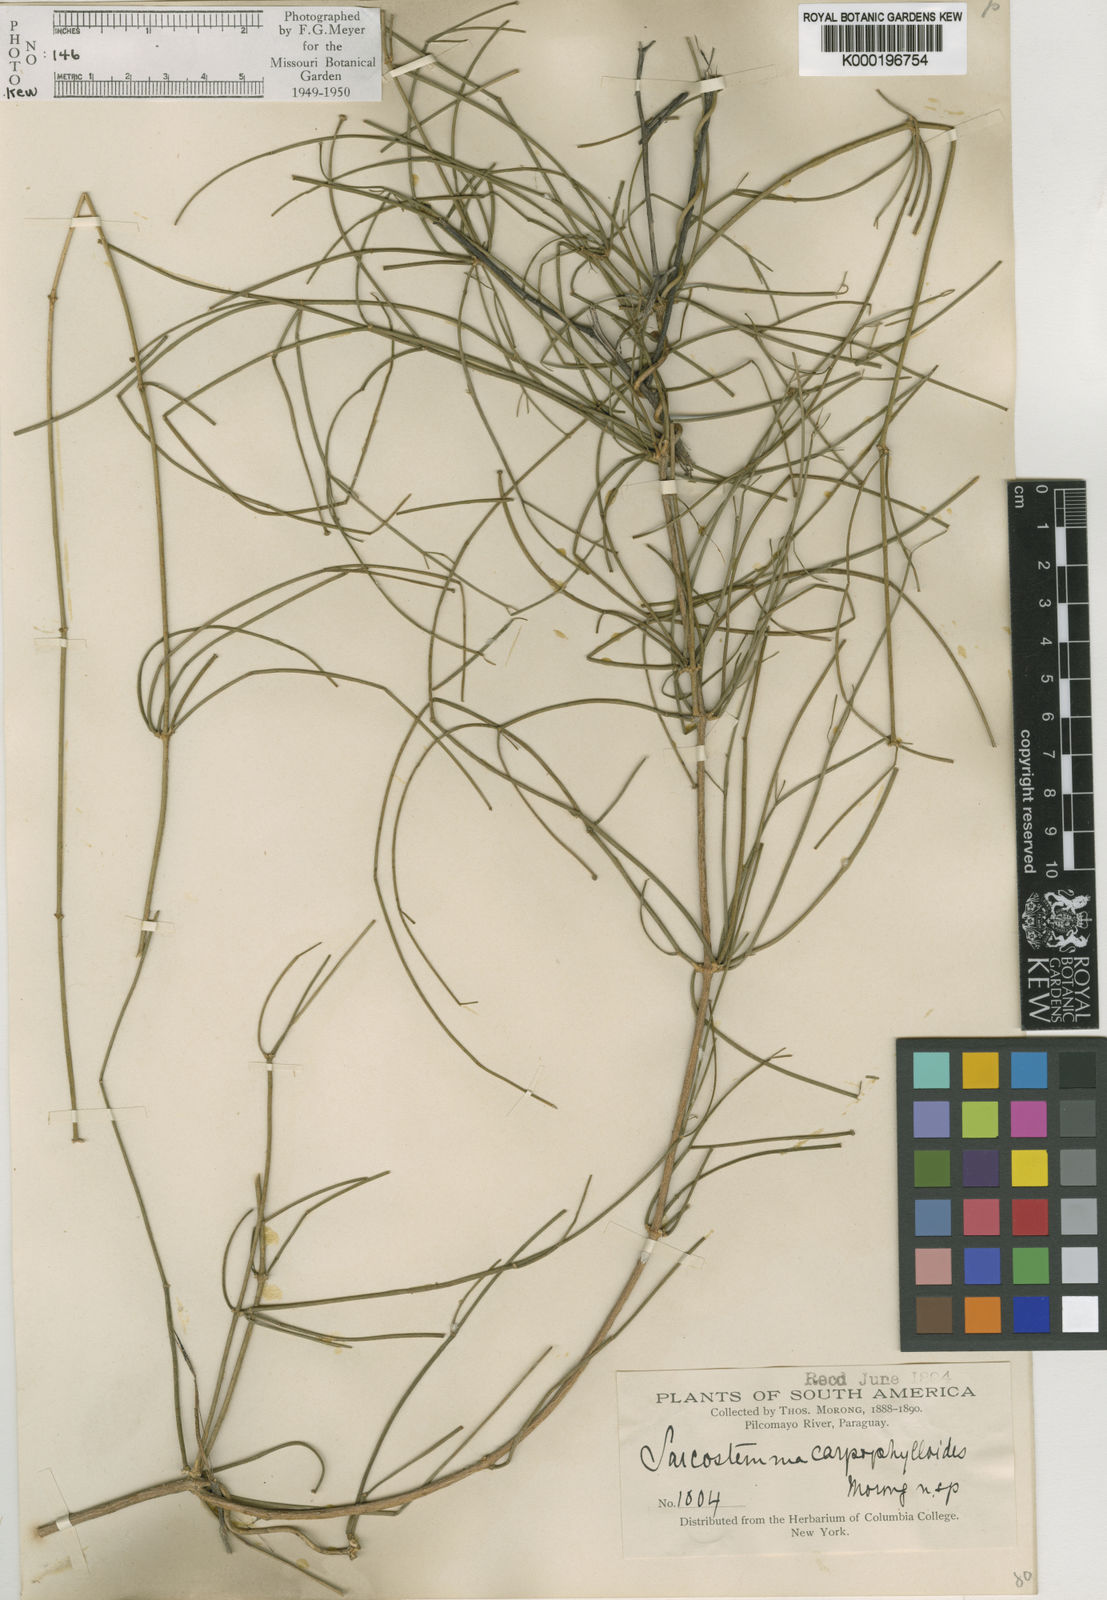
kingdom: Plantae
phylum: Tracheophyta
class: Magnoliopsida
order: Gentianales
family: Apocynaceae
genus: Funastrum
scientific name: Funastrum gracile
